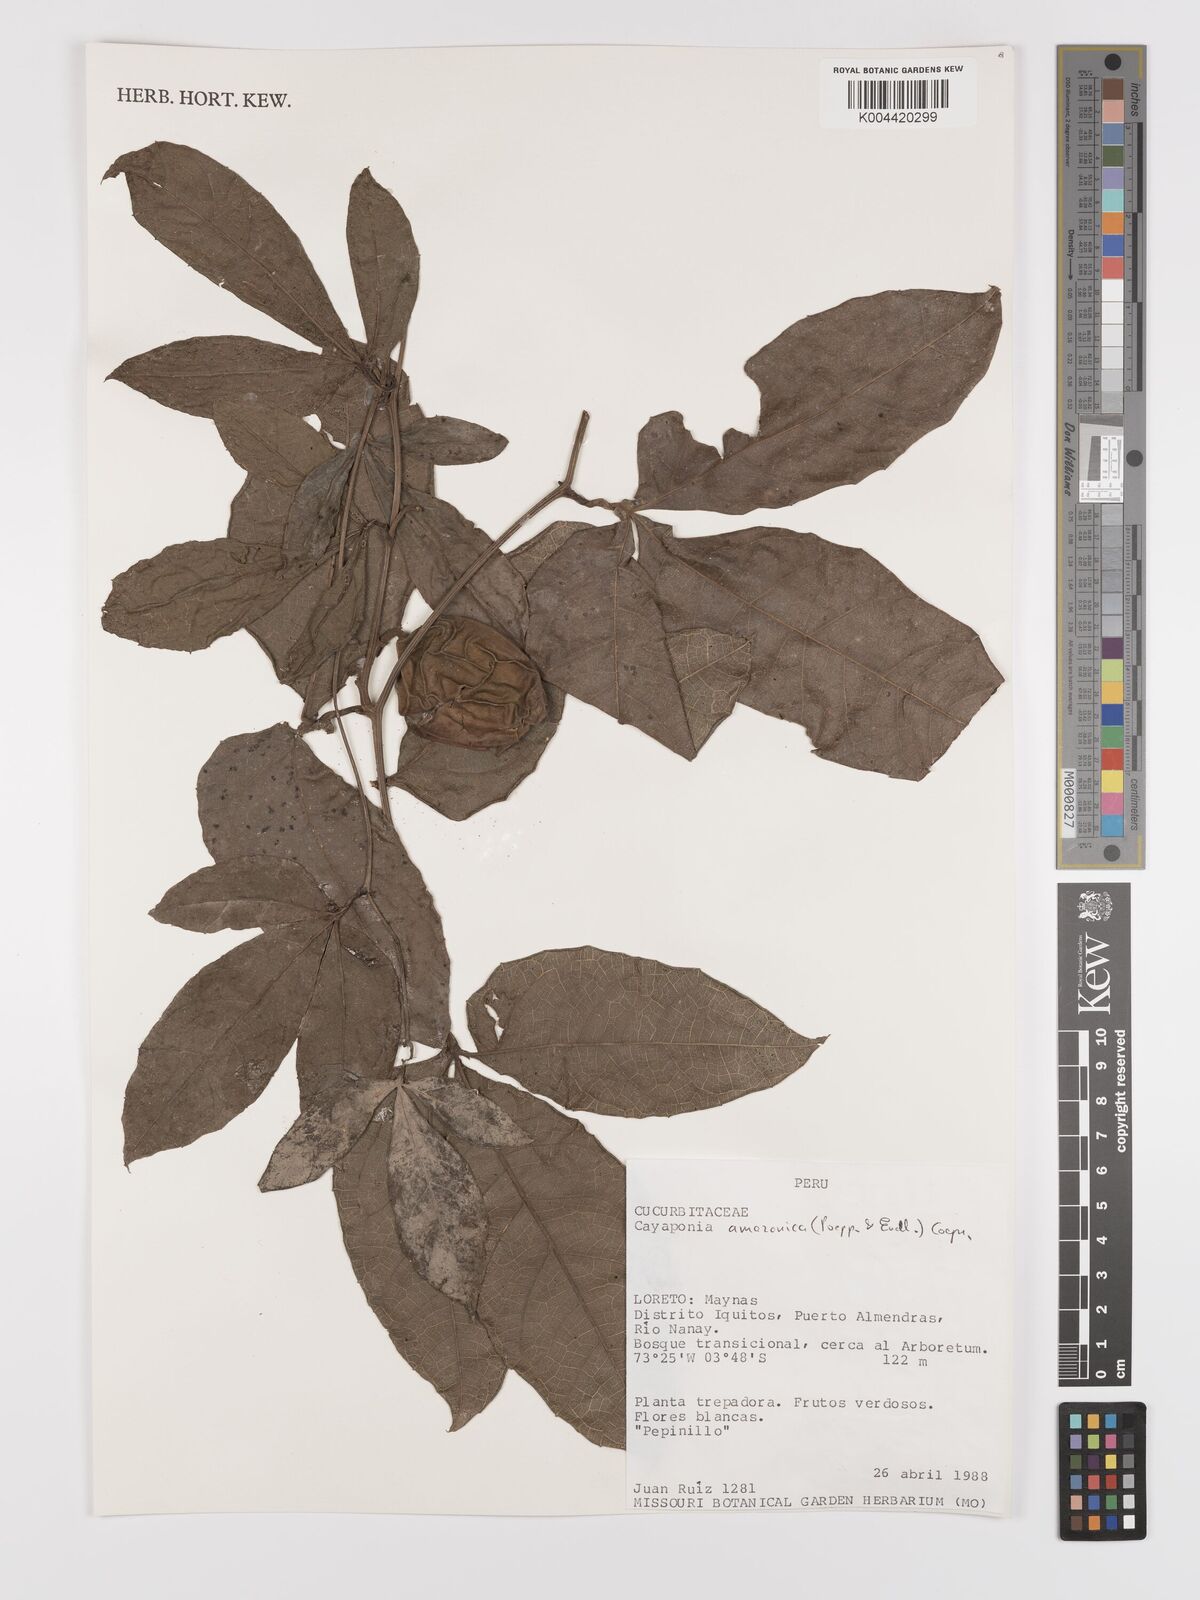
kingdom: Plantae
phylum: Tracheophyta
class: Magnoliopsida
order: Cucurbitales
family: Cucurbitaceae
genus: Cayaponia
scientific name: Cayaponia amazonica
